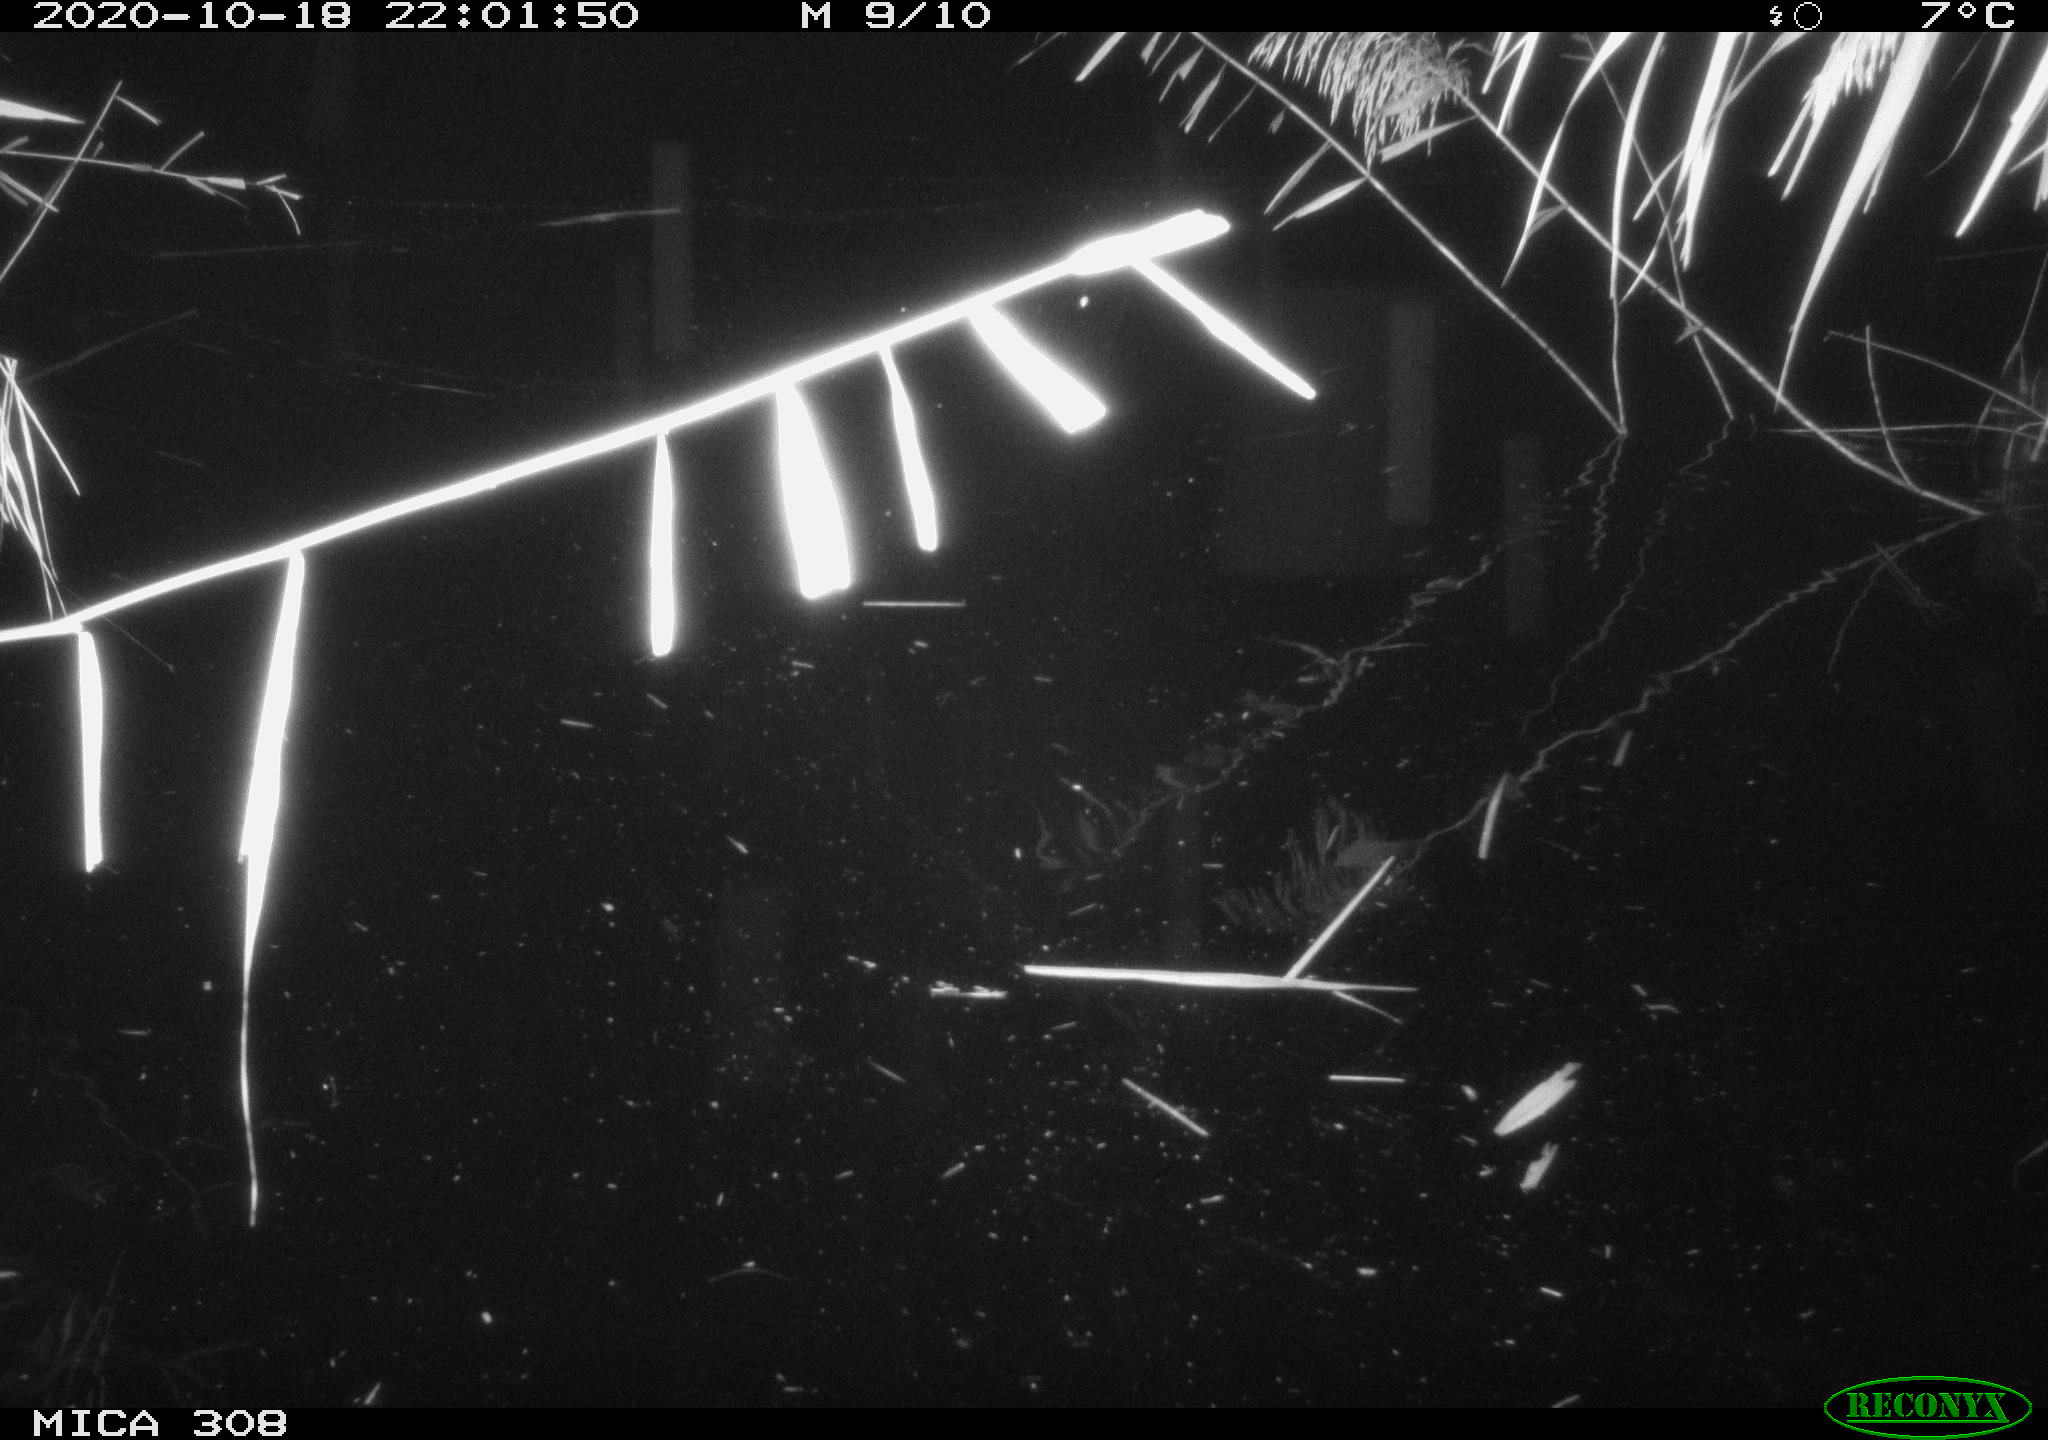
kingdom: Animalia
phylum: Chordata
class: Mammalia
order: Rodentia
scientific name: Rodentia
